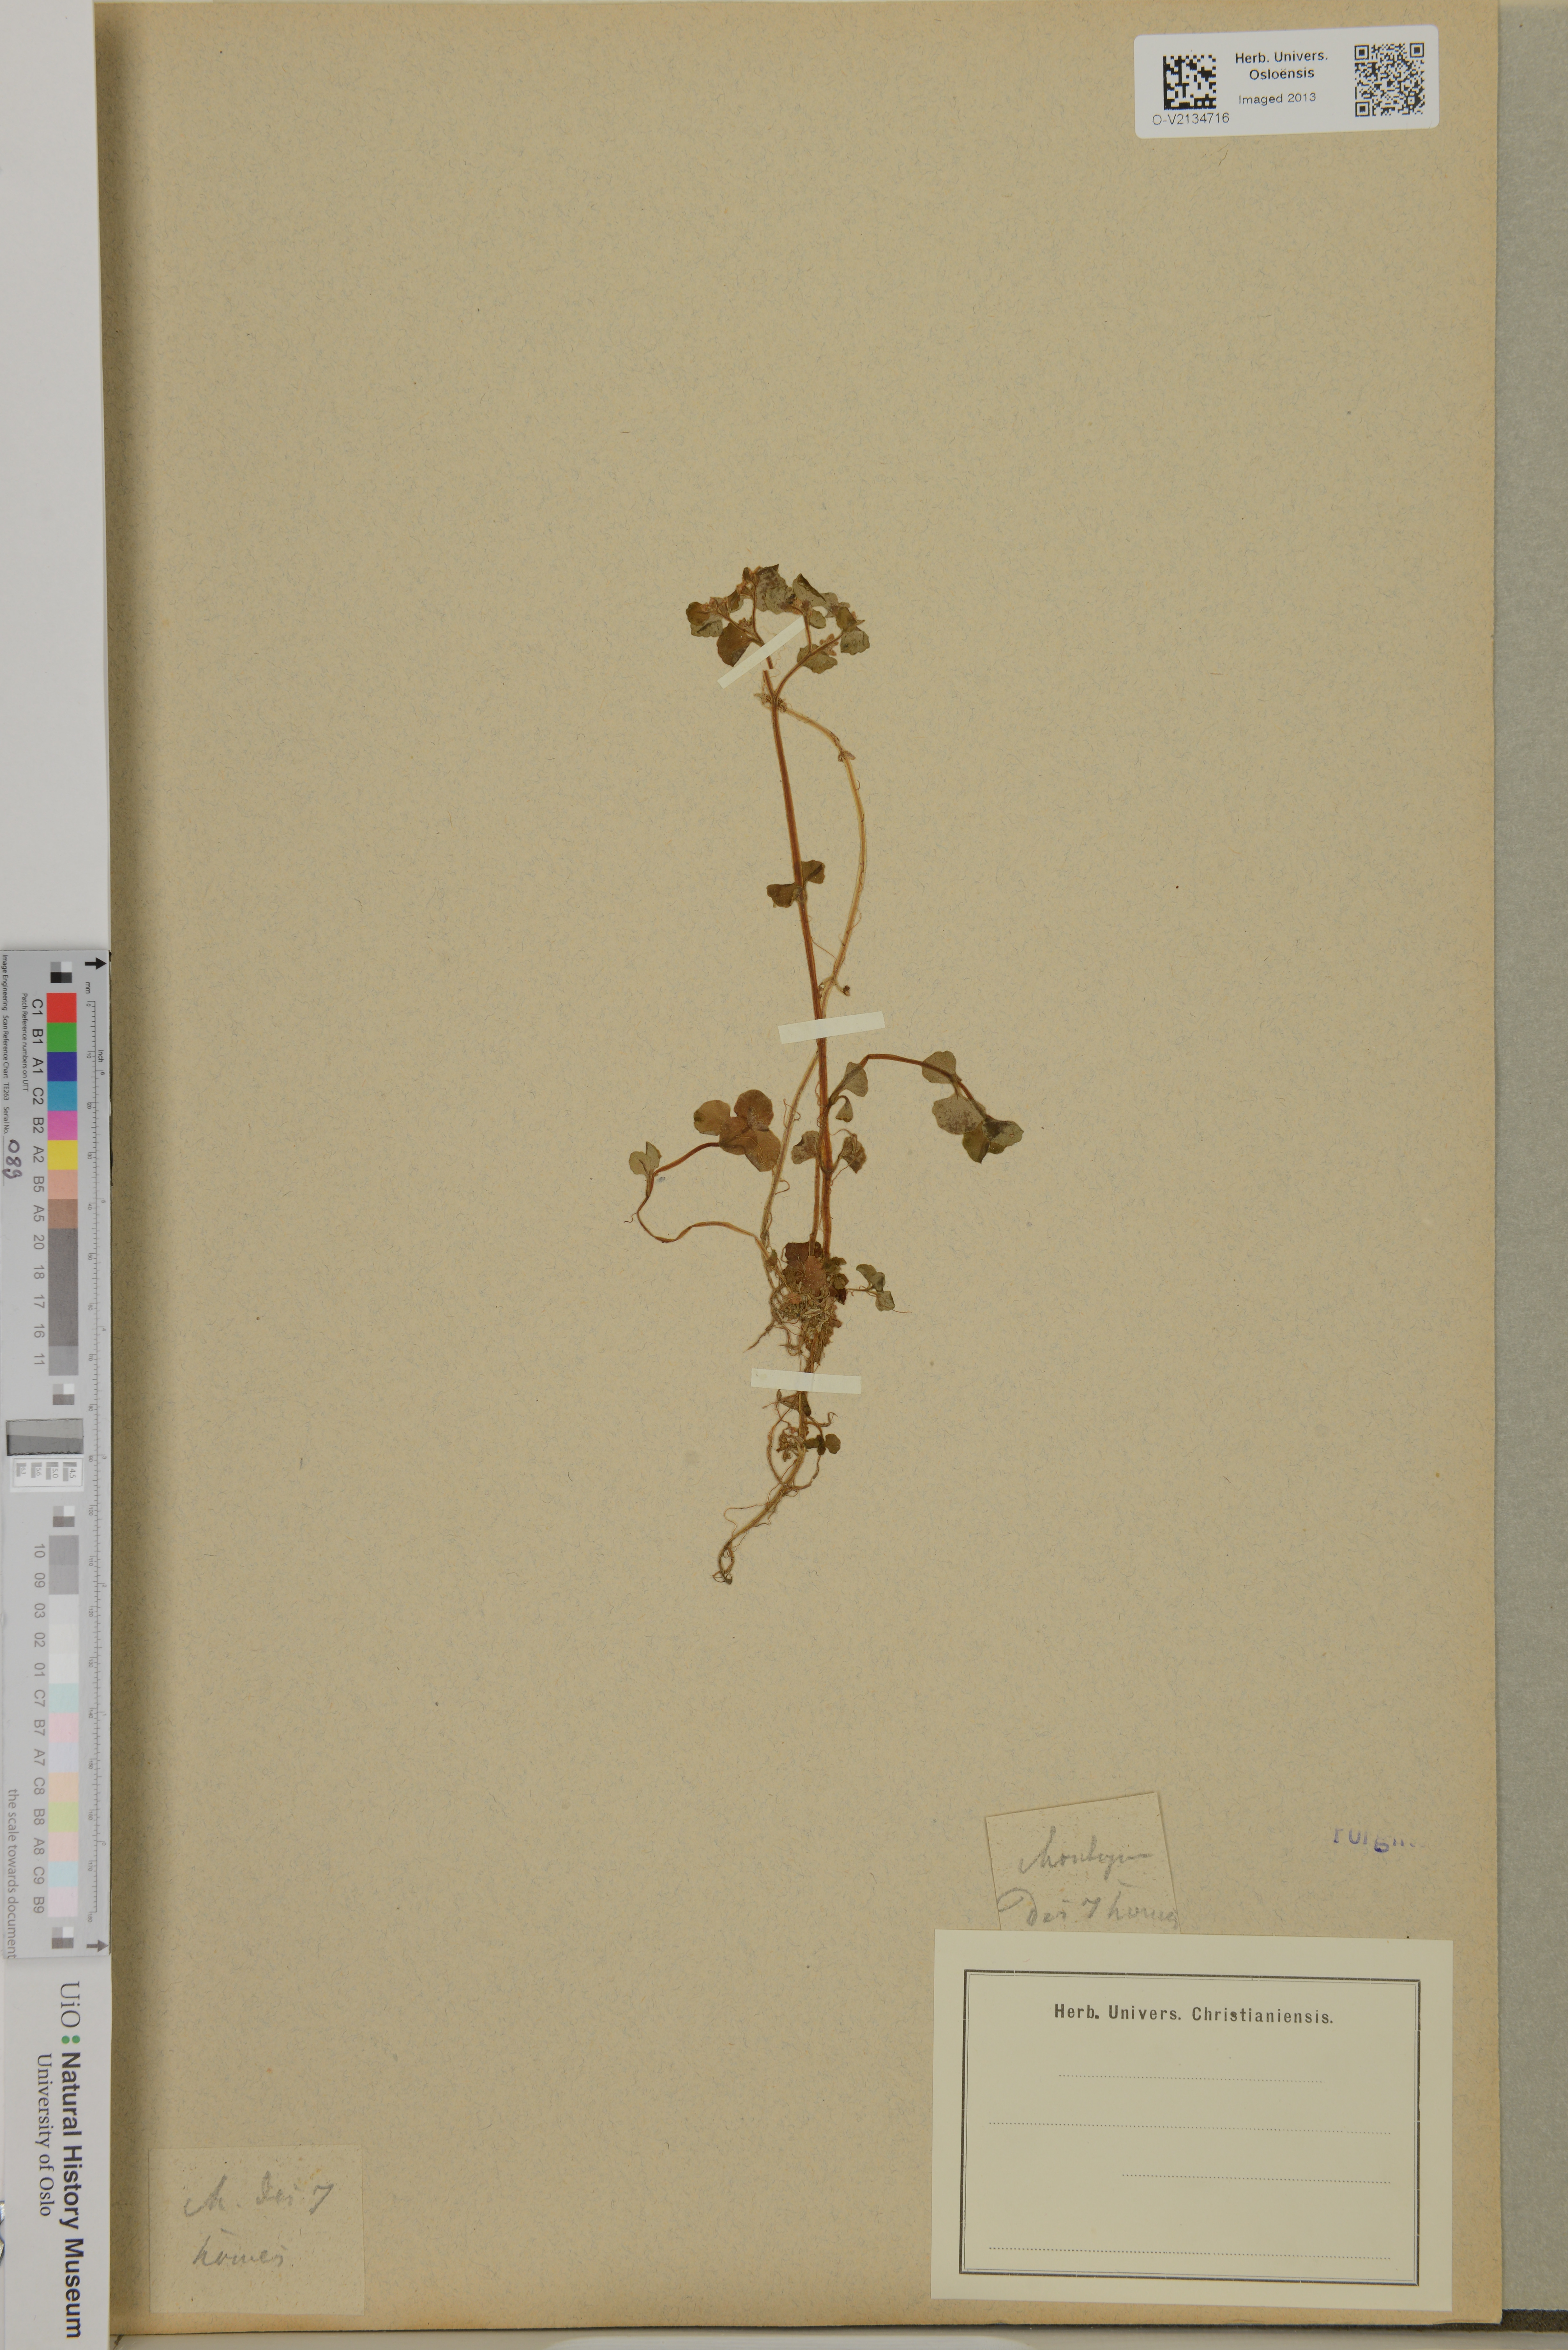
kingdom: Plantae
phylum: Tracheophyta
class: Magnoliopsida
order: Saxifragales
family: Saxifragaceae
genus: Chrysosplenium
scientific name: Chrysosplenium
